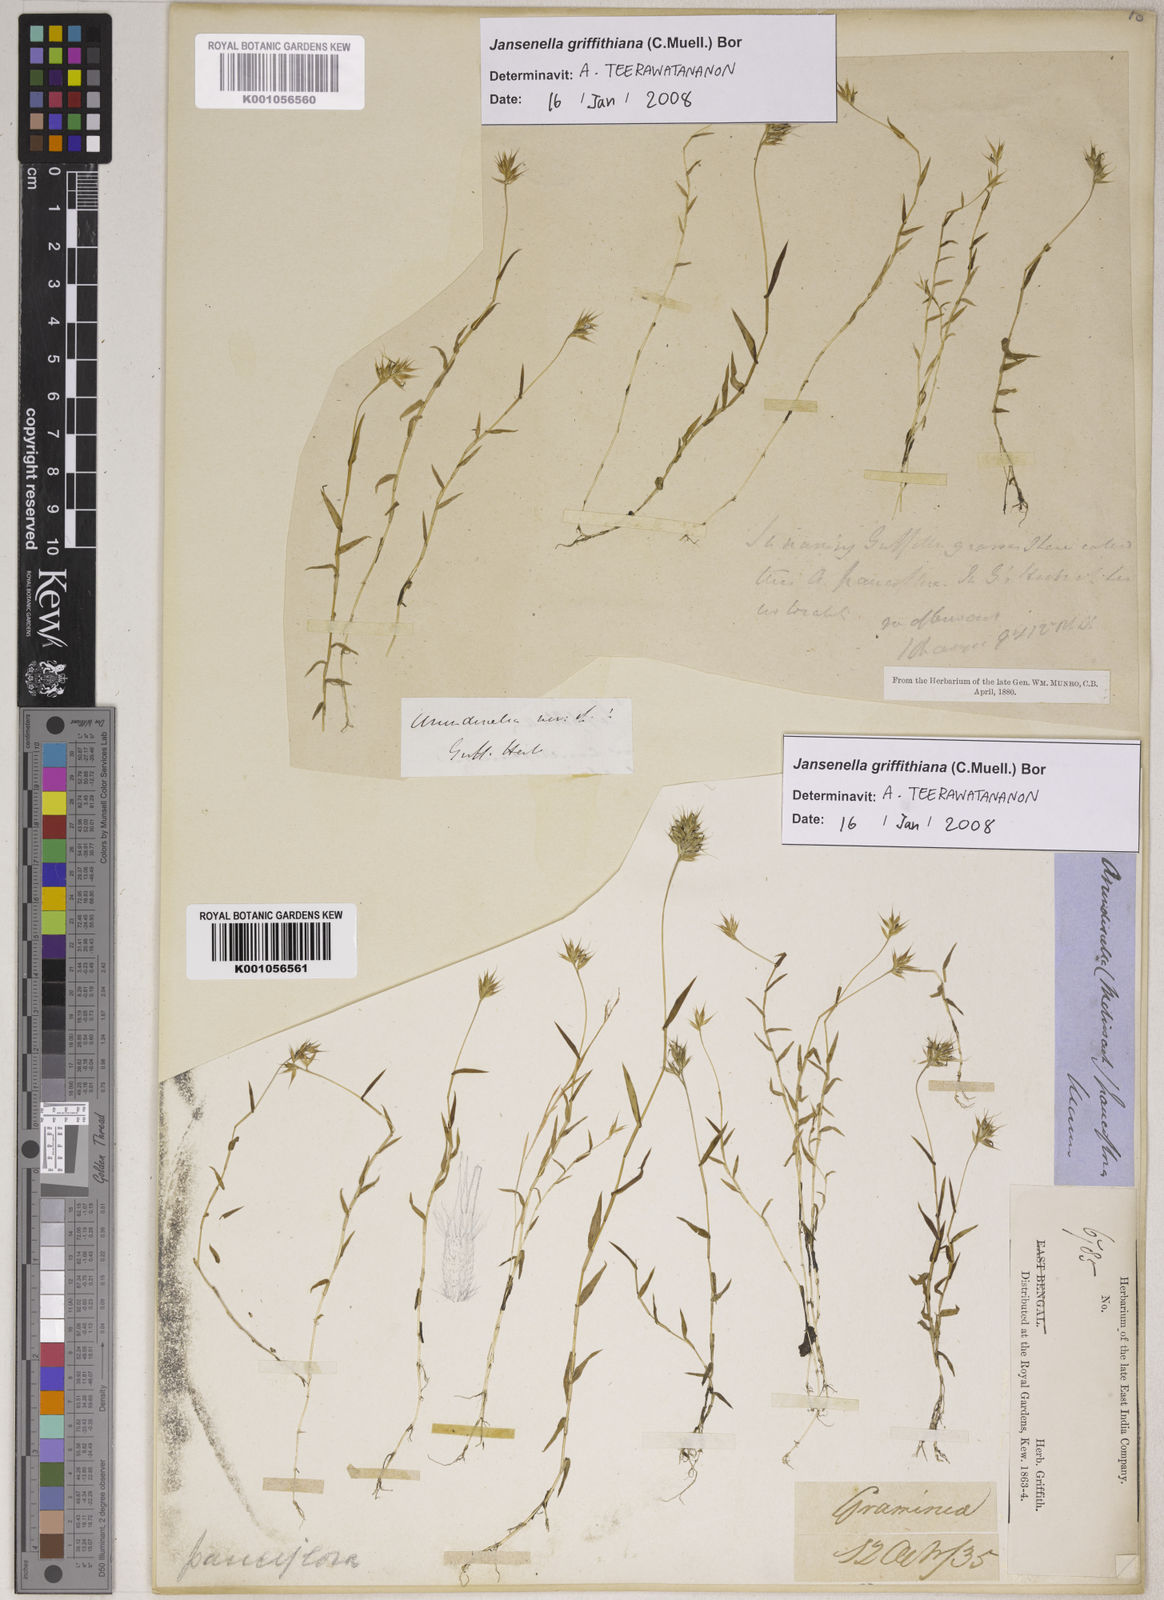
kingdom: Plantae
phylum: Tracheophyta
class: Liliopsida
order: Poales
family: Poaceae
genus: Jansenella
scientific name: Jansenella griffithiana
